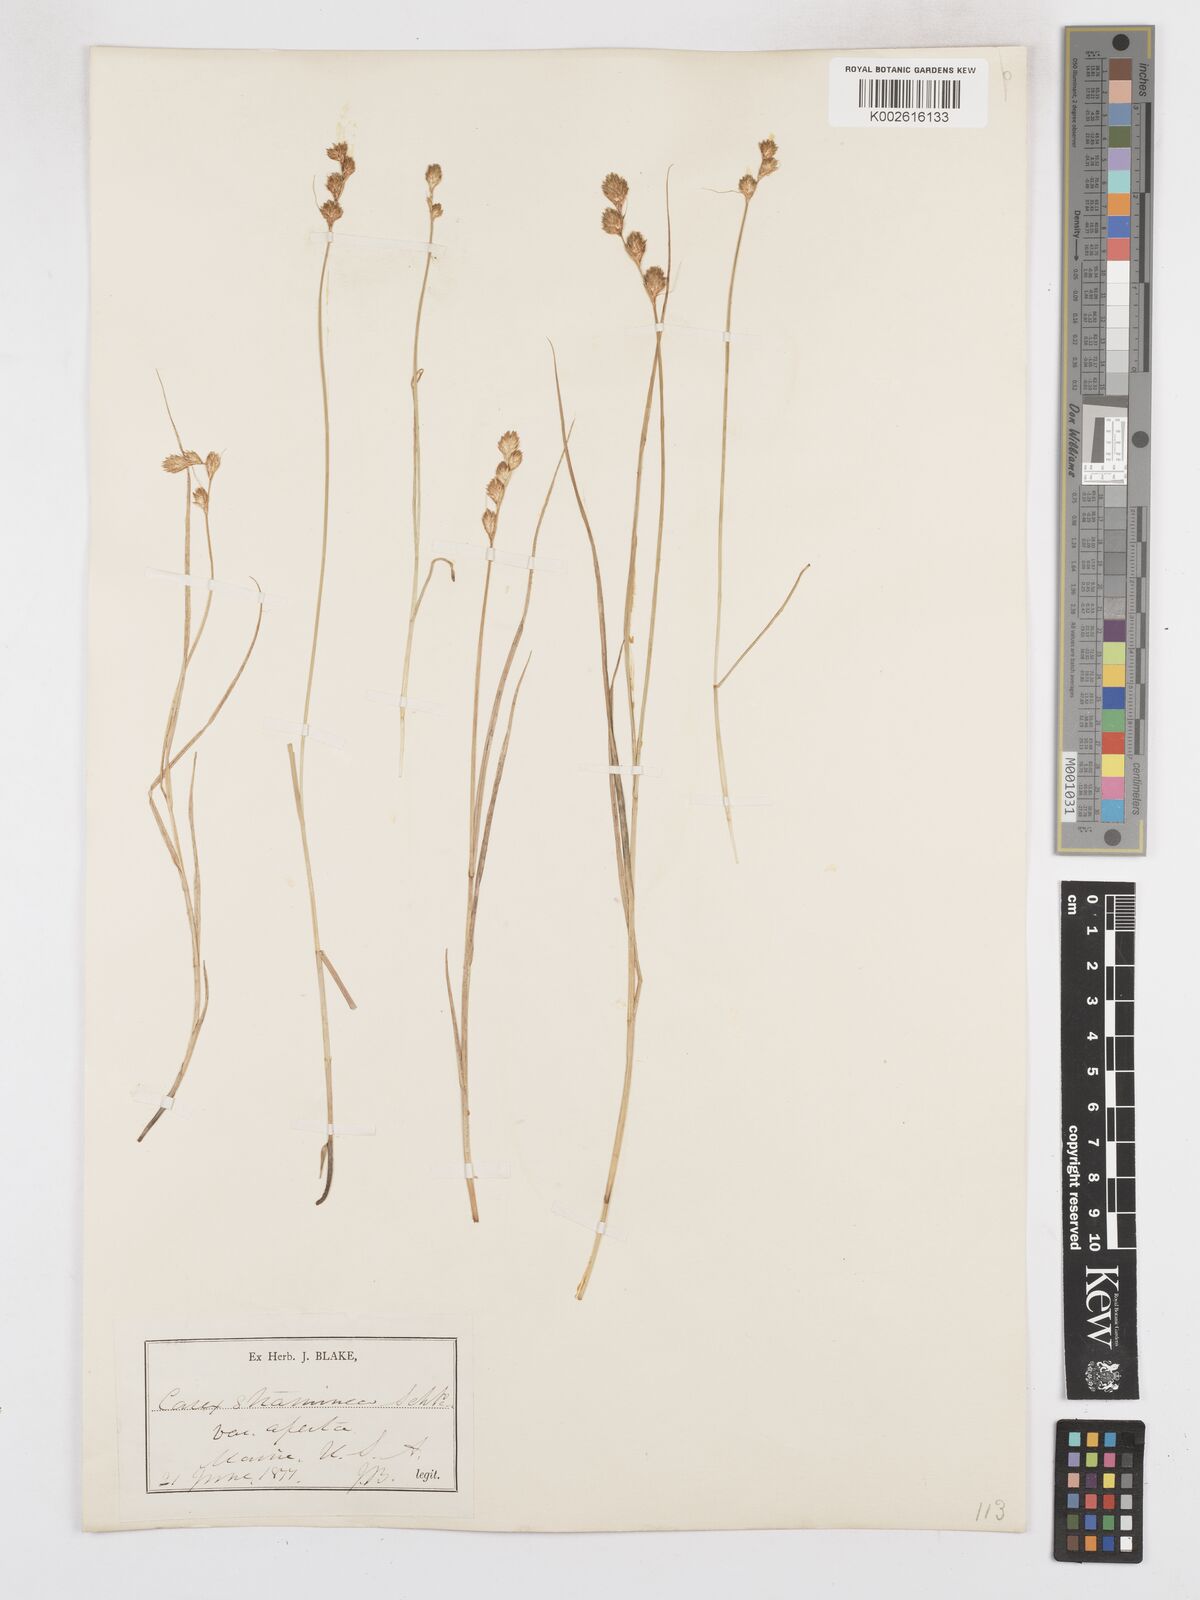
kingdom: Plantae
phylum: Tracheophyta
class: Liliopsida
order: Poales
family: Cyperaceae
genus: Carex
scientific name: Carex brevior
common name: Brevior sedge
